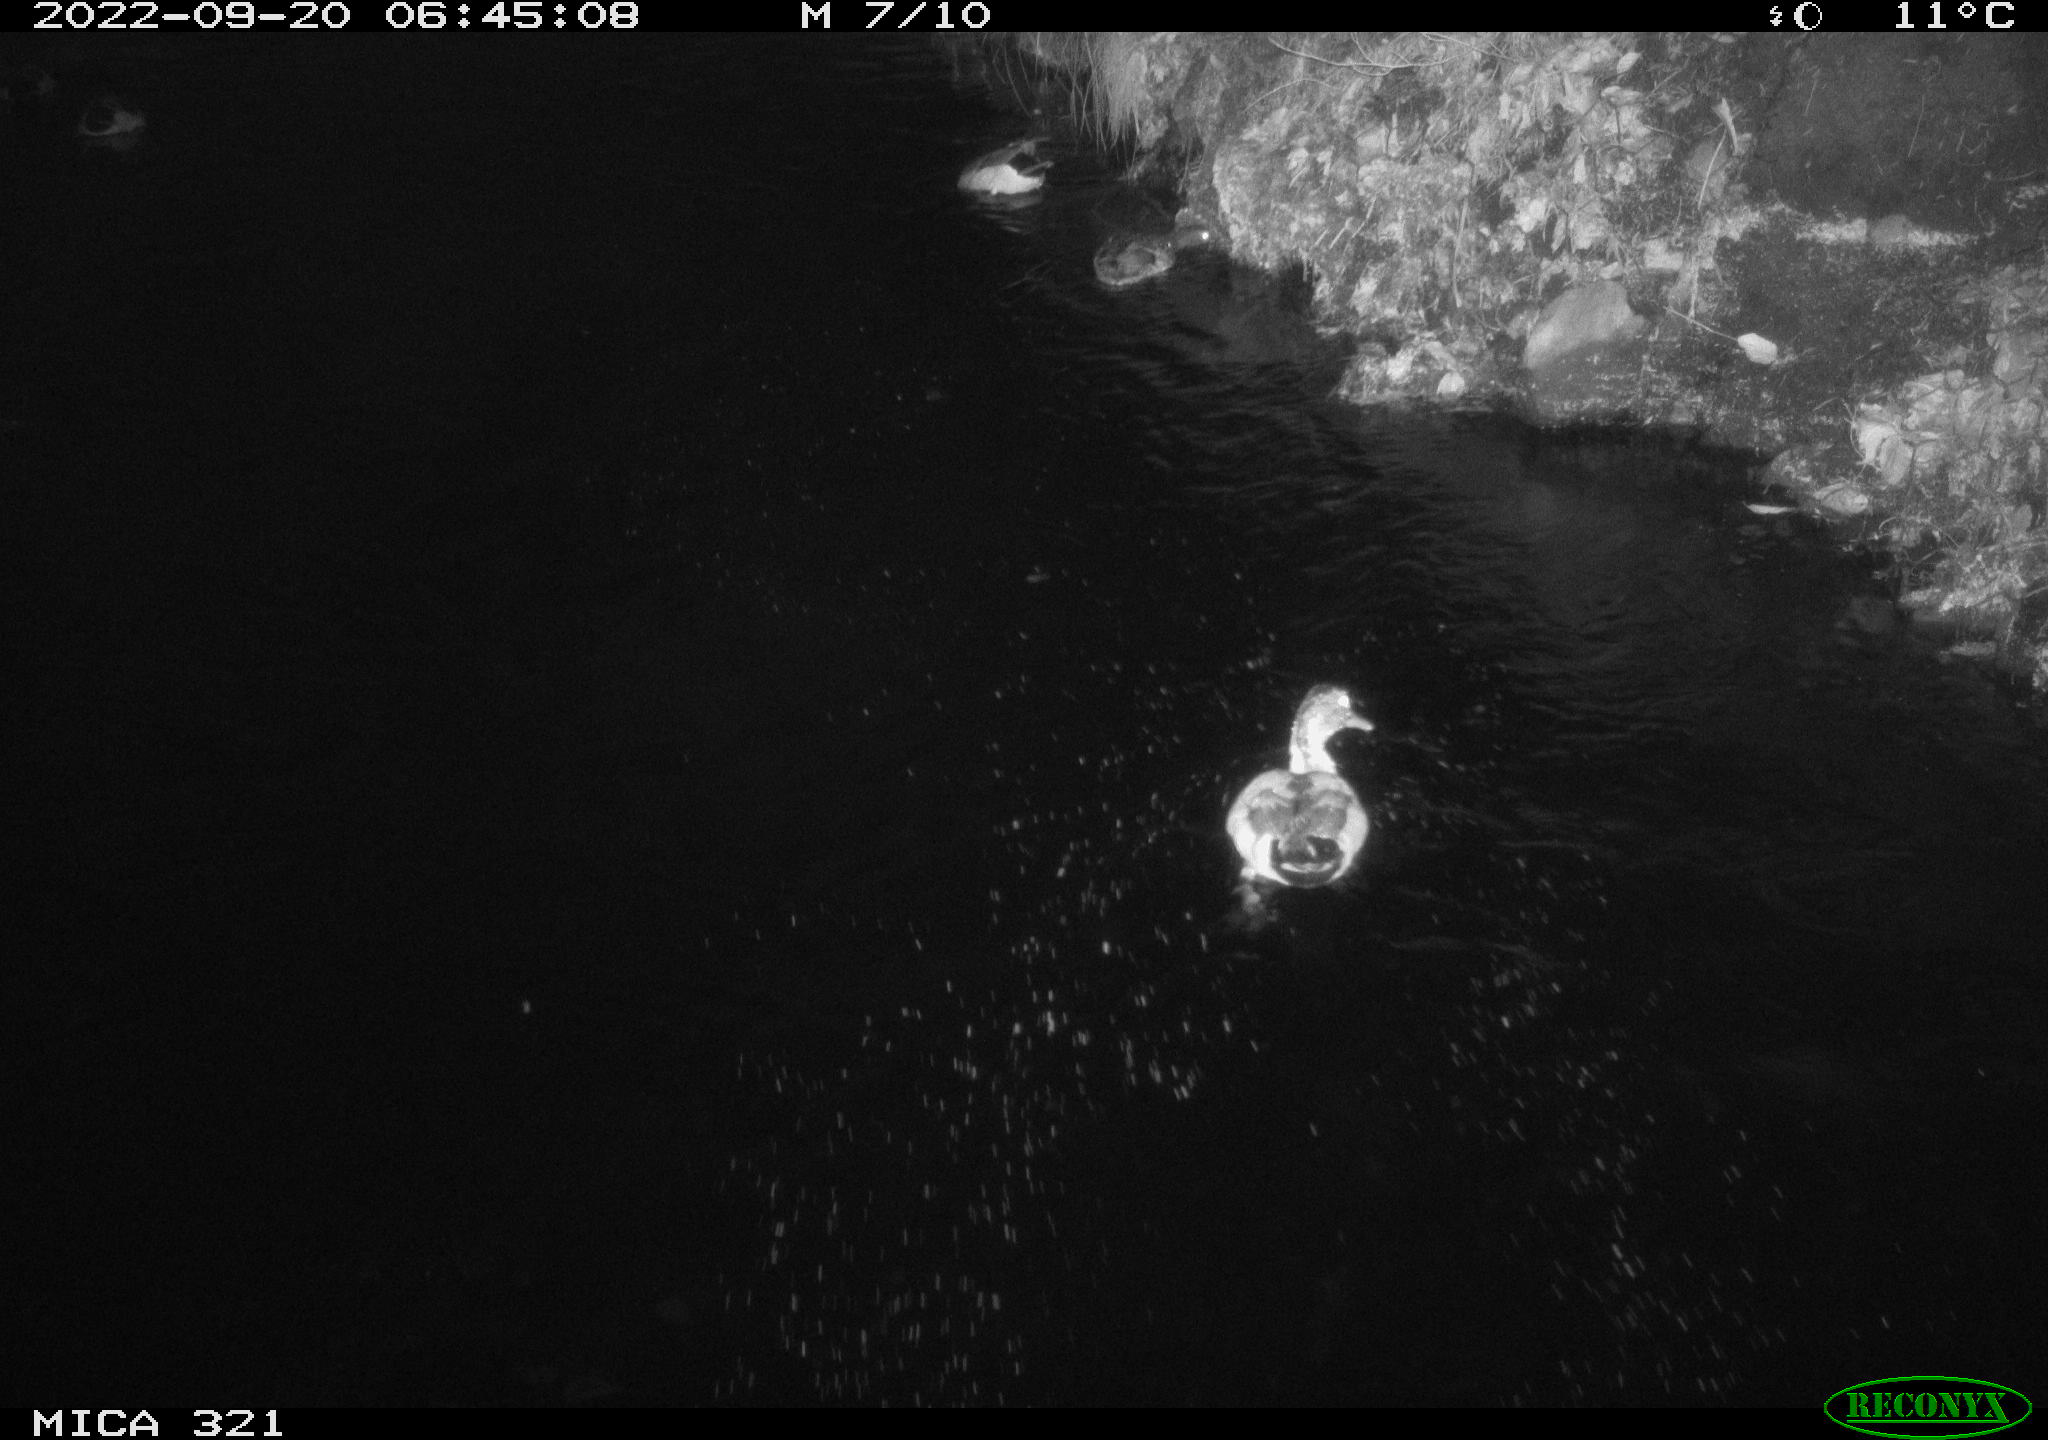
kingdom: Animalia
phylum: Chordata
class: Aves
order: Anseriformes
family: Anatidae
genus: Anas
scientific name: Anas
